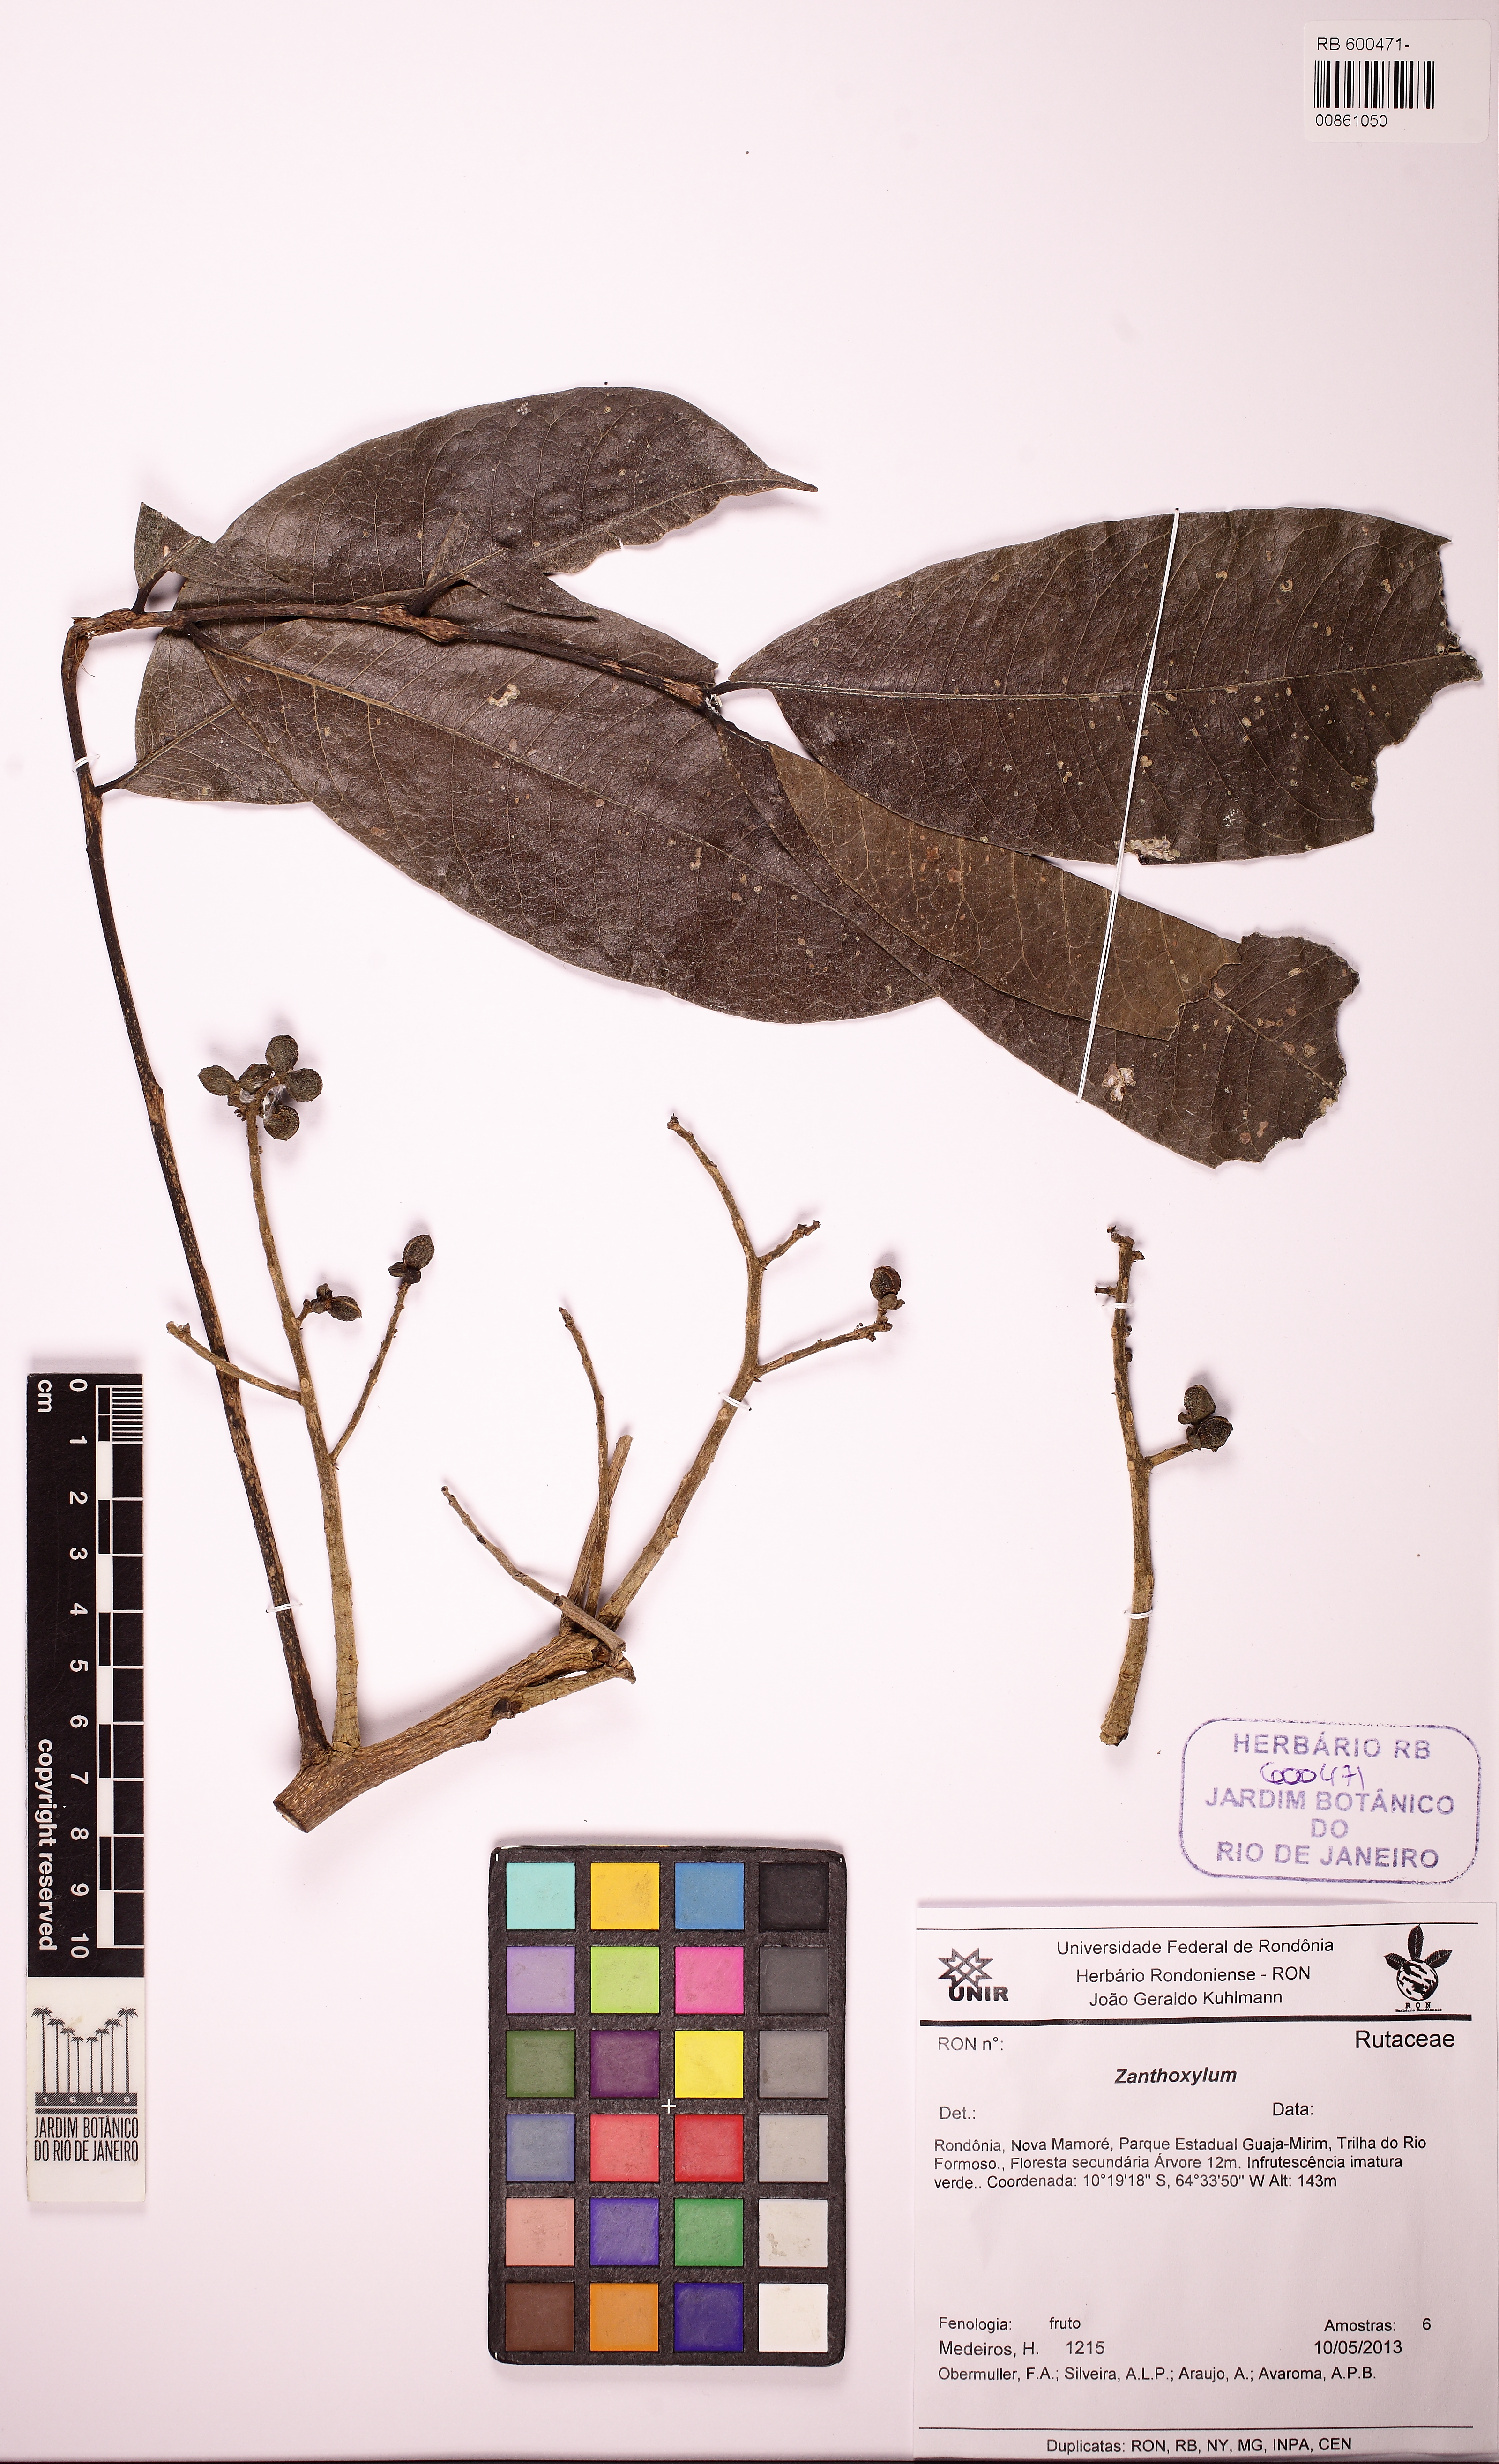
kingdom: Plantae
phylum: Tracheophyta
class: Magnoliopsida
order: Sapindales
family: Rutaceae
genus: Zanthoxylum
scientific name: Zanthoxylum riedelianum
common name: White copal
